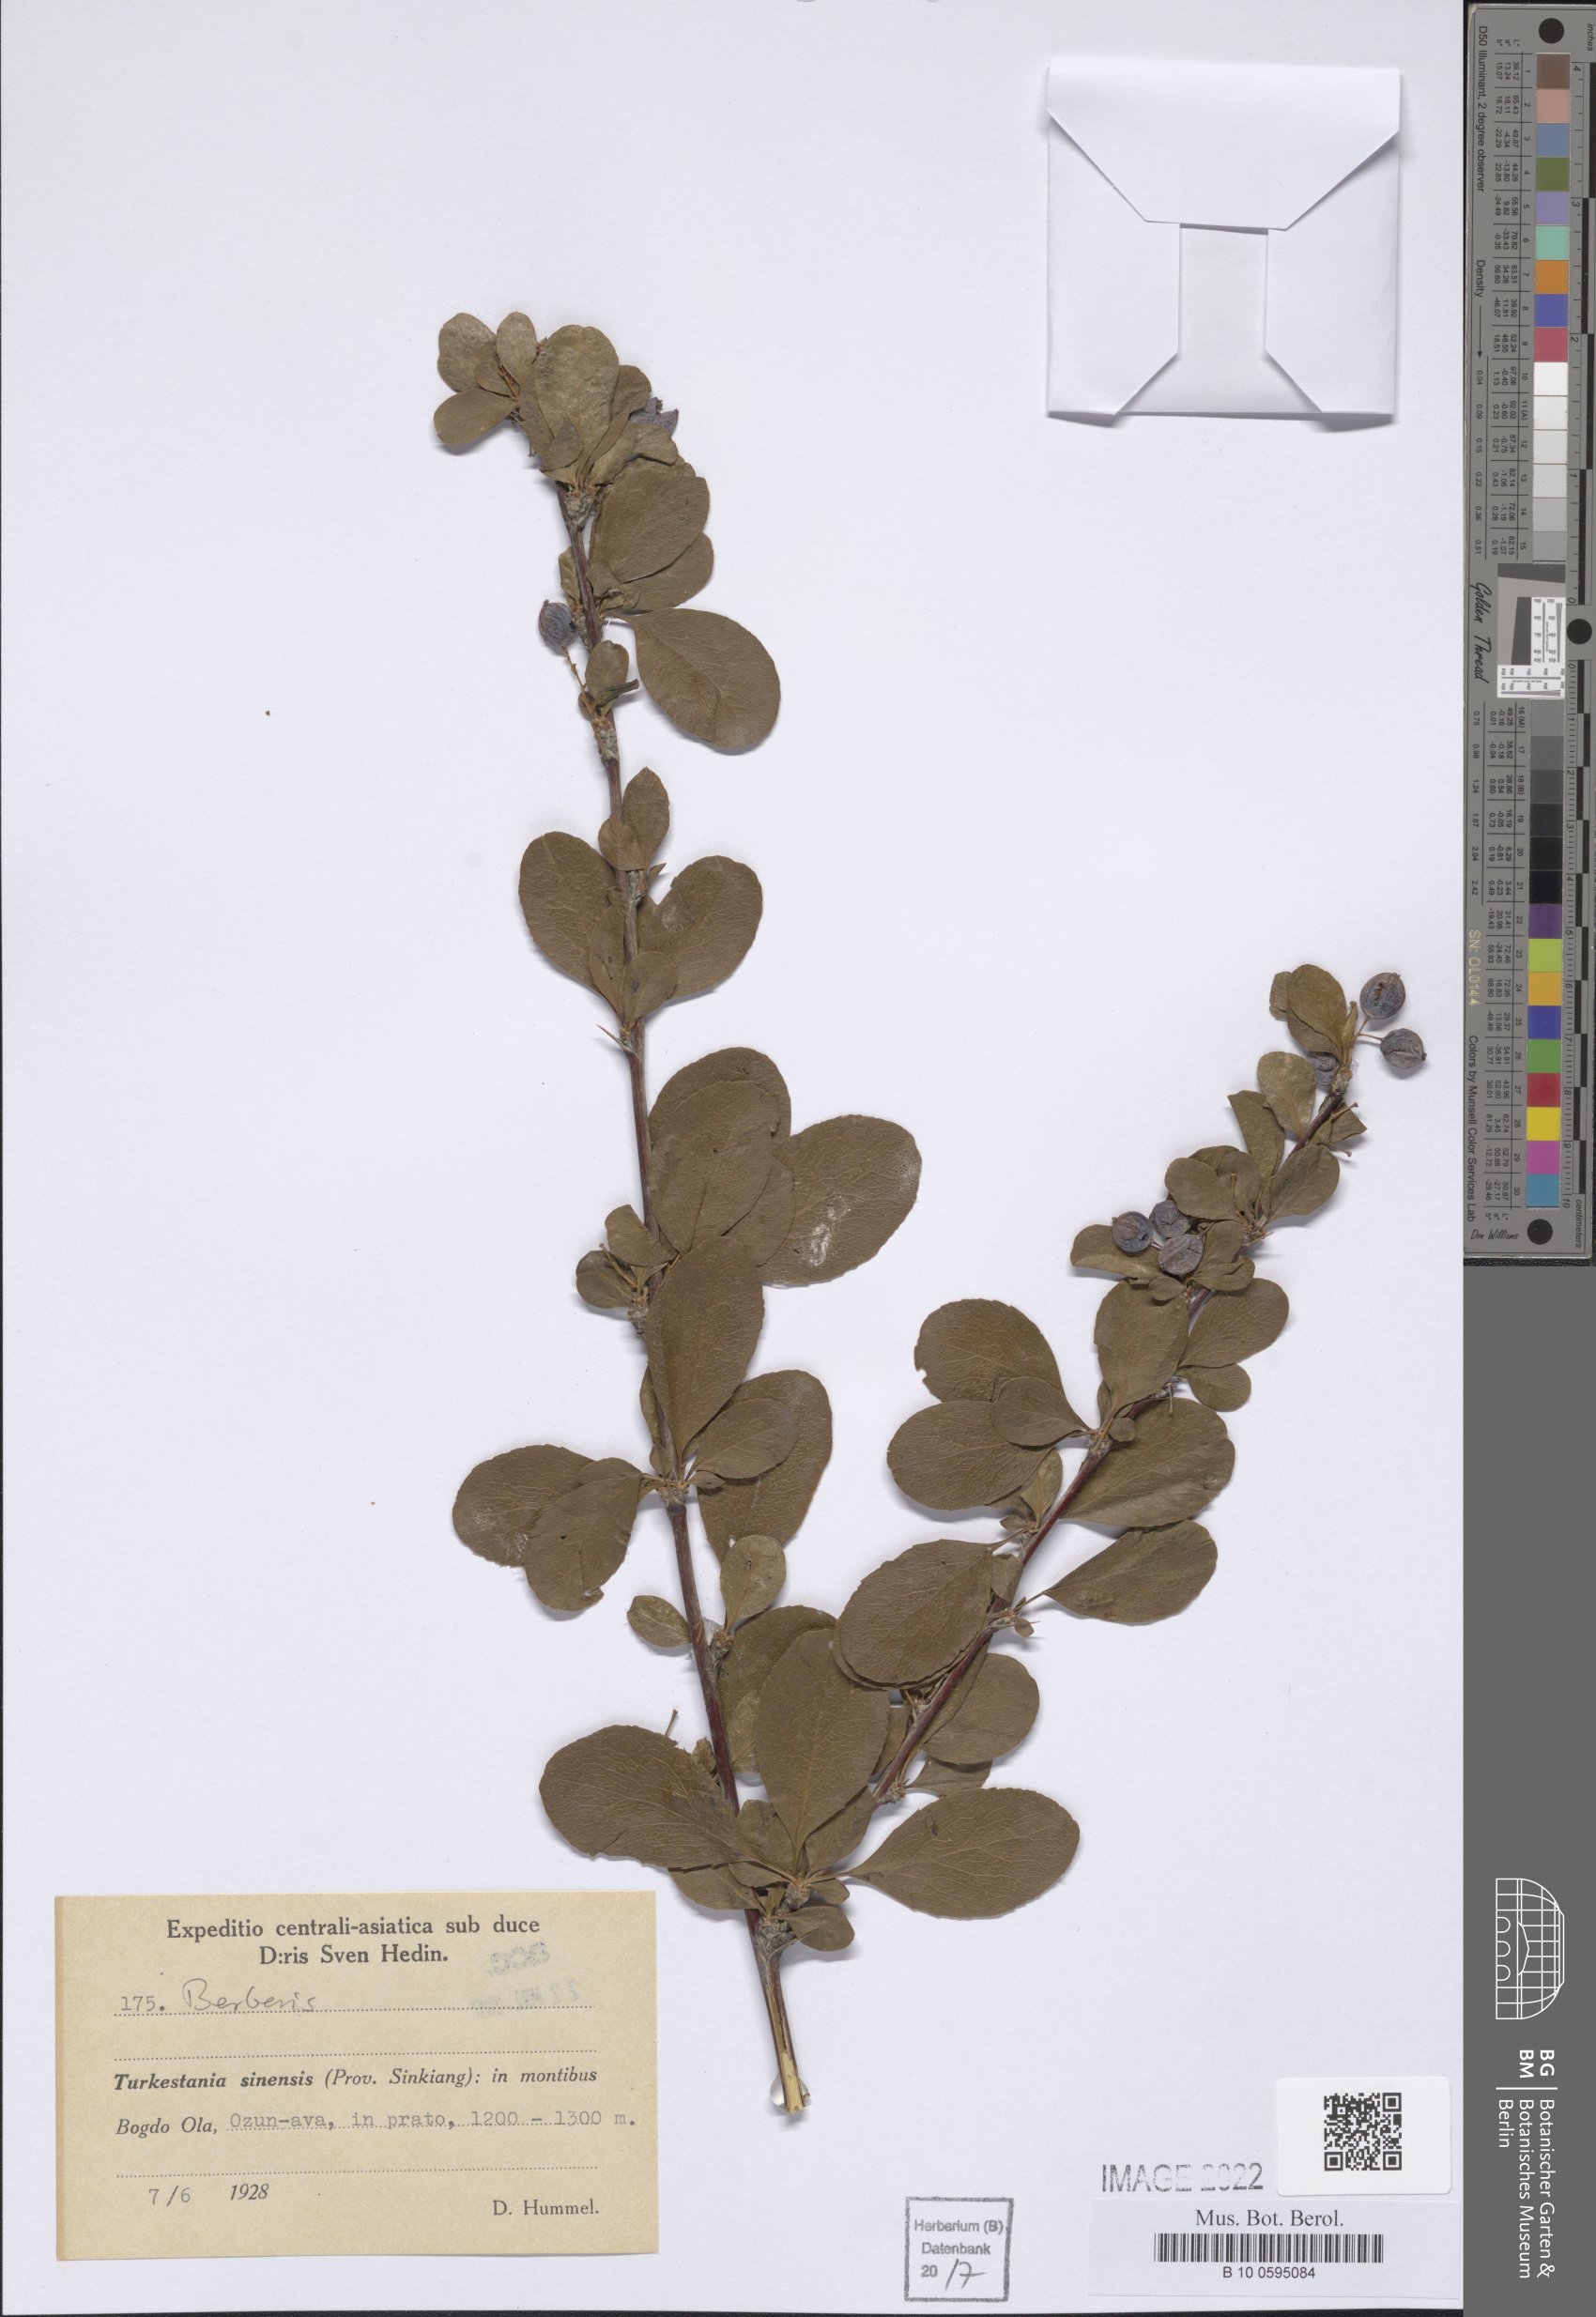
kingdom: Plantae
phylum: Tracheophyta
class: Magnoliopsida
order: Ranunculales
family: Berberidaceae
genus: Berberis
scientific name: Berberis
